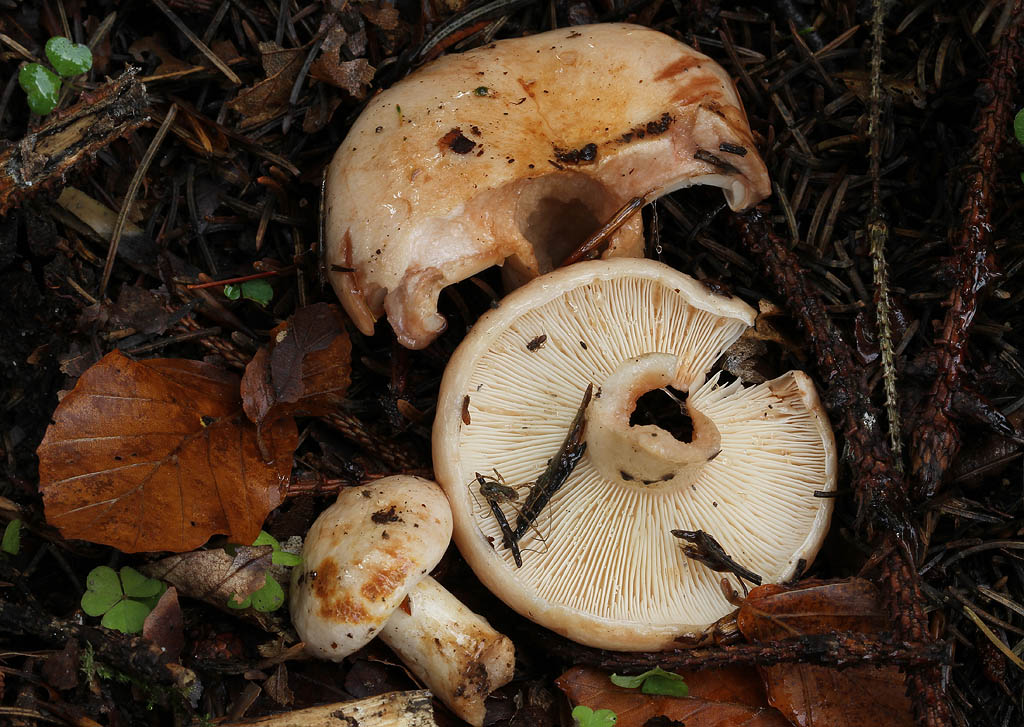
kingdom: Fungi
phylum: Basidiomycota
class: Agaricomycetes
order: Russulales
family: Russulaceae
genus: Lactarius
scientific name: Lactarius pallidus
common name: bleg mælkehat
